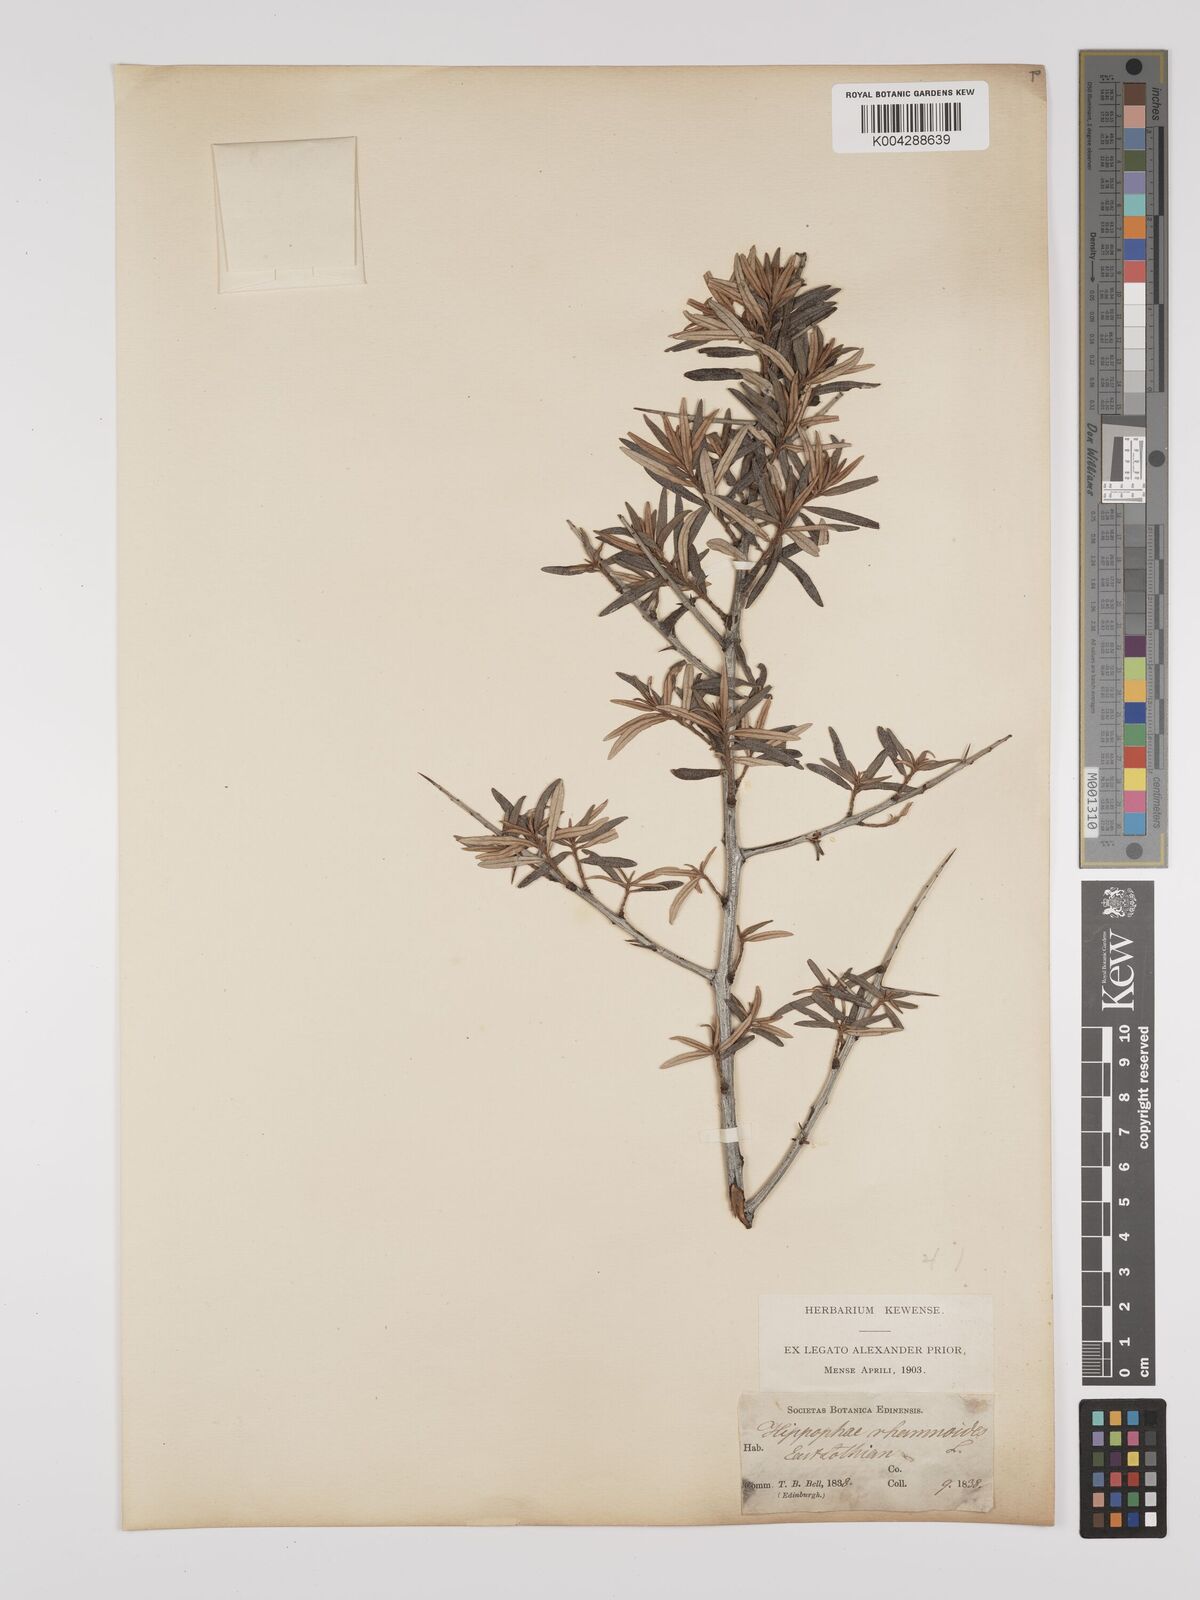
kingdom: Plantae
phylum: Tracheophyta
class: Magnoliopsida
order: Rosales
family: Elaeagnaceae
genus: Hippophae
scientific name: Hippophae rhamnoides
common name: Sea-buckthorn
